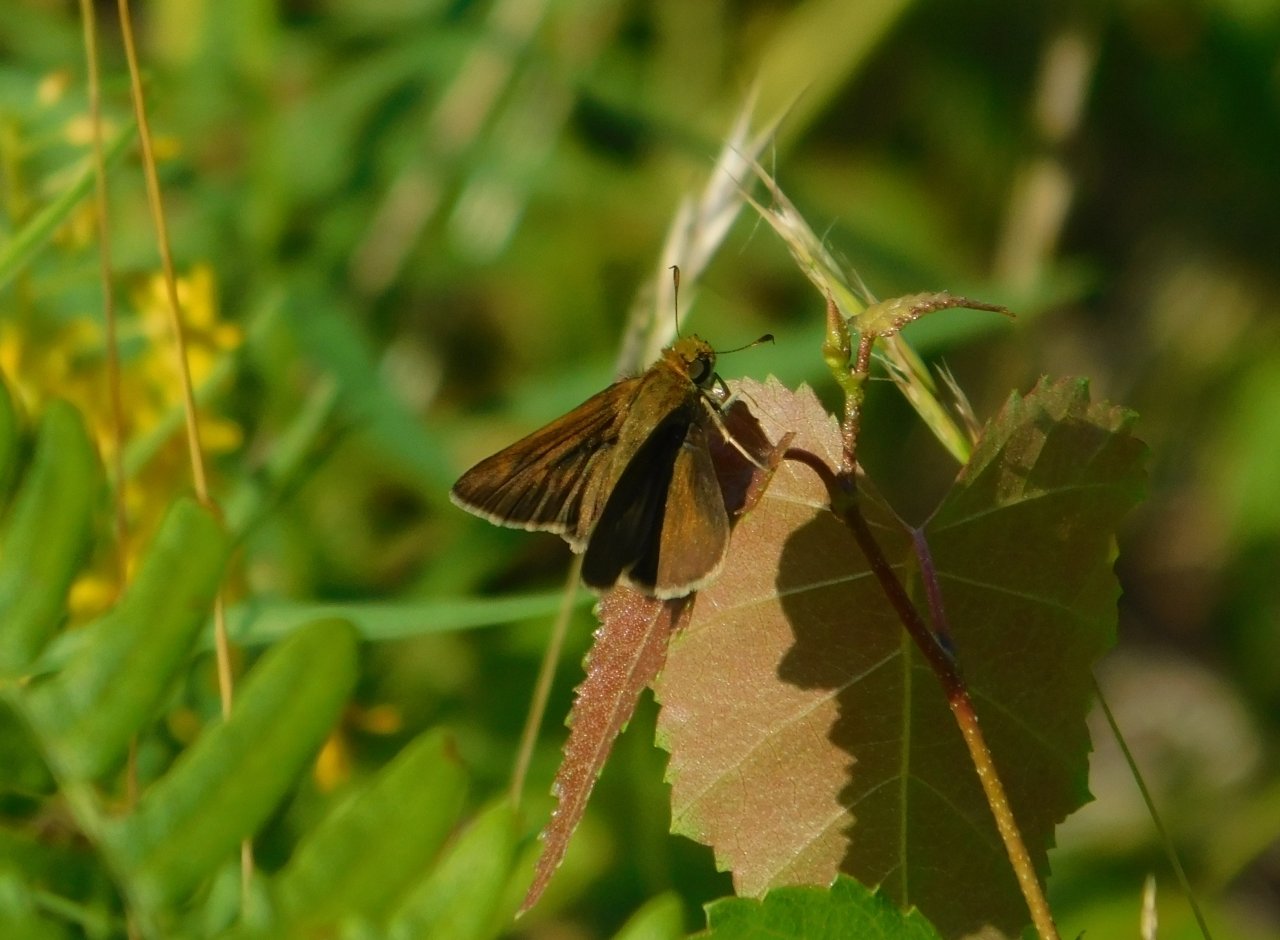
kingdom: Animalia
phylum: Arthropoda
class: Insecta
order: Lepidoptera
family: Hesperiidae
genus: Euphyes
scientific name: Euphyes vestris
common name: Dun Skipper
